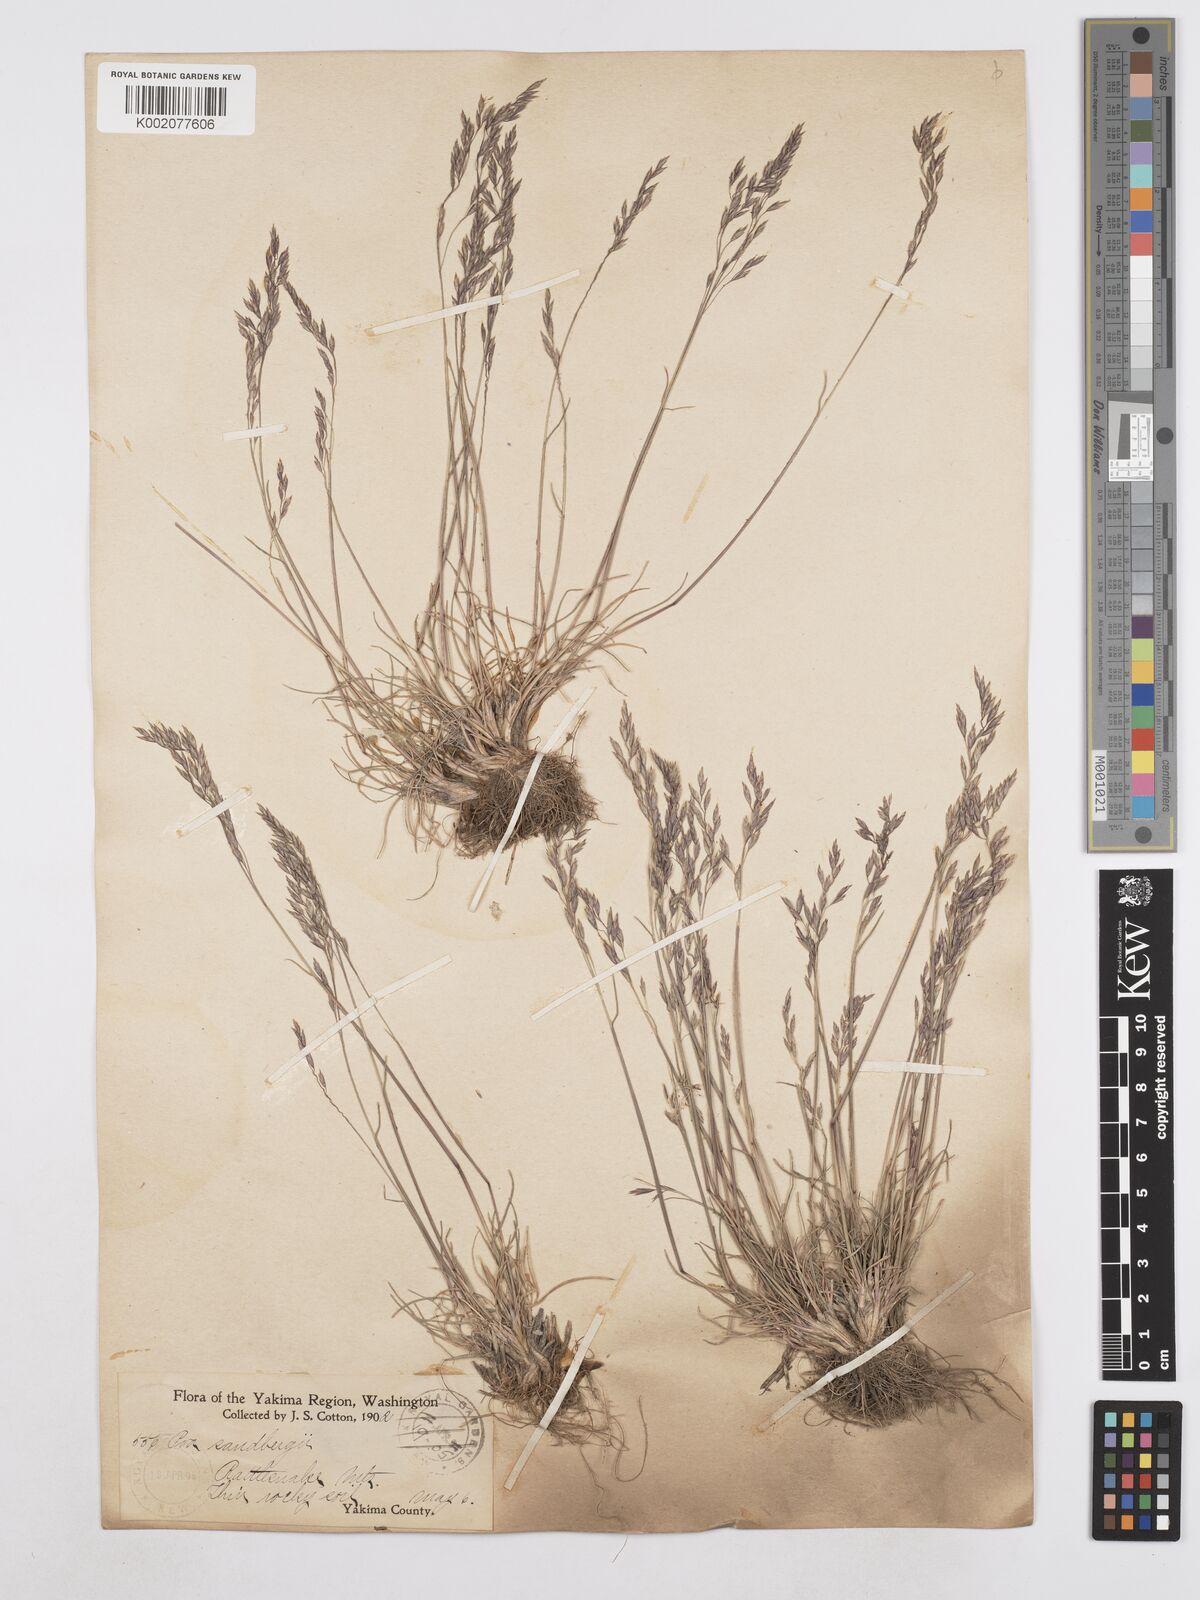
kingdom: Plantae
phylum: Tracheophyta
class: Liliopsida
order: Poales
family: Poaceae
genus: Poa
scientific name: Poa secunda
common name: Sandberg bluegrass
